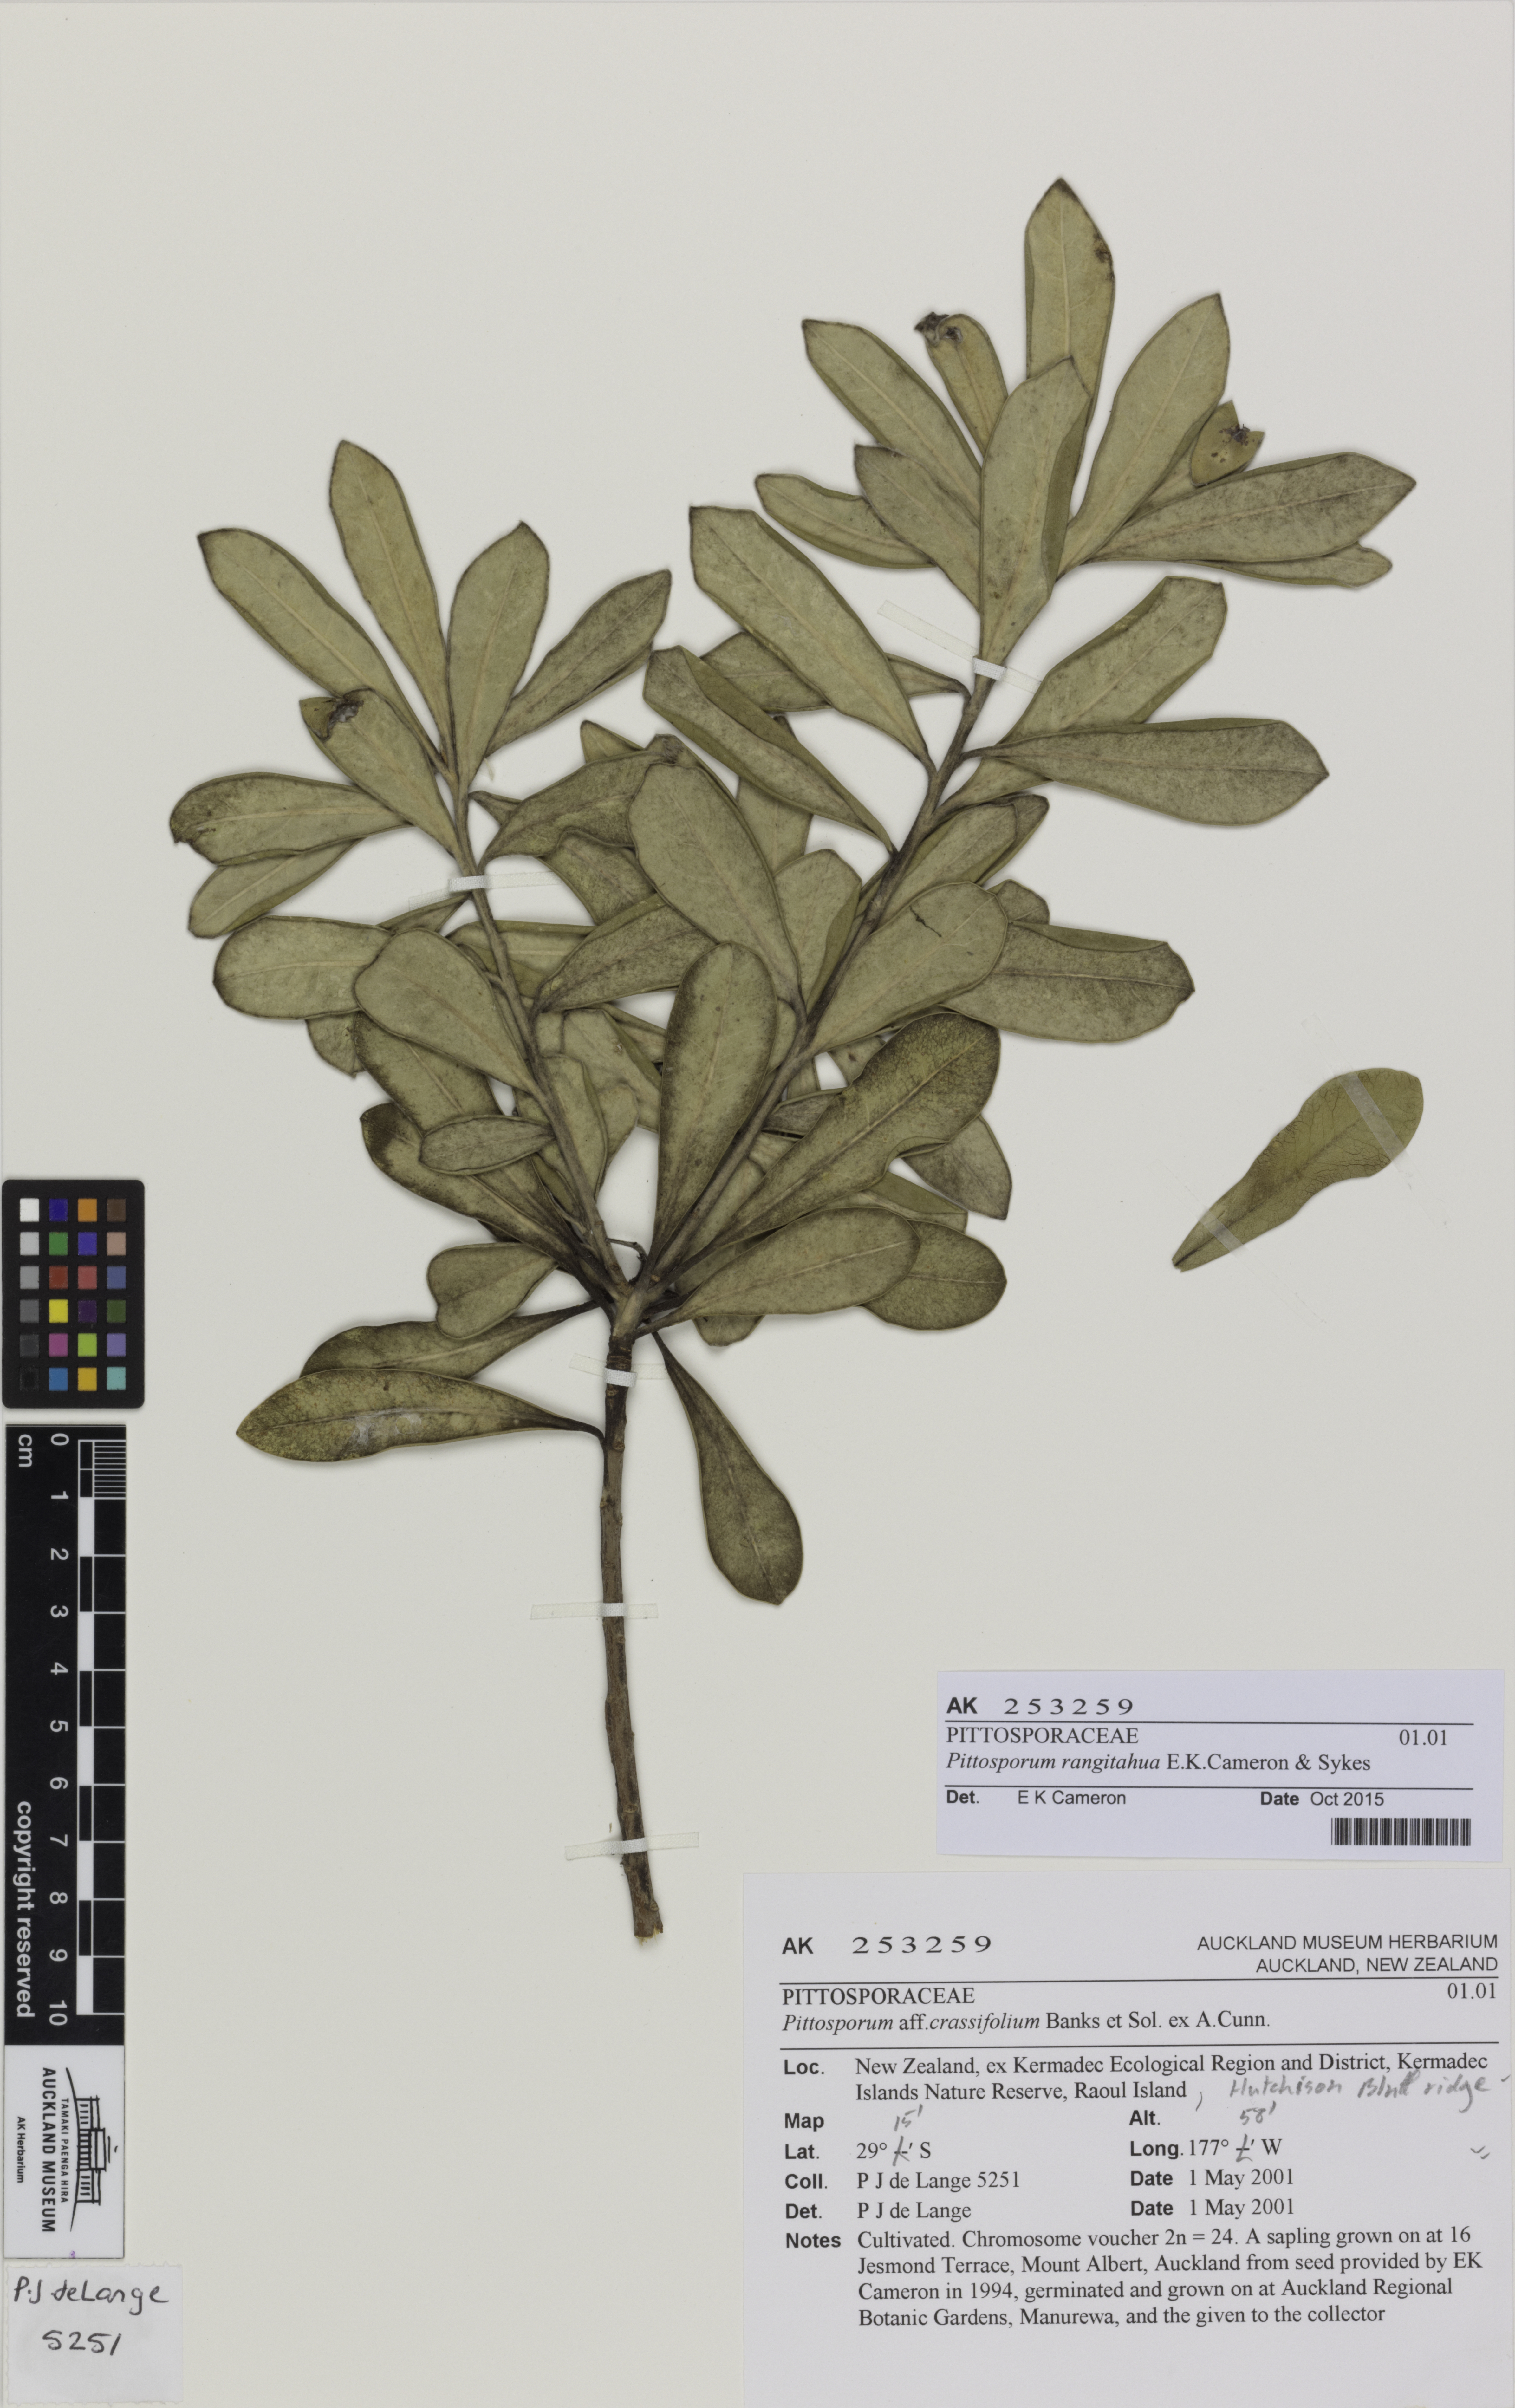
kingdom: Plantae
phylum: Tracheophyta
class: Magnoliopsida
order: Apiales
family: Pittosporaceae
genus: Pittosporum
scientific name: Pittosporum rangitahua
